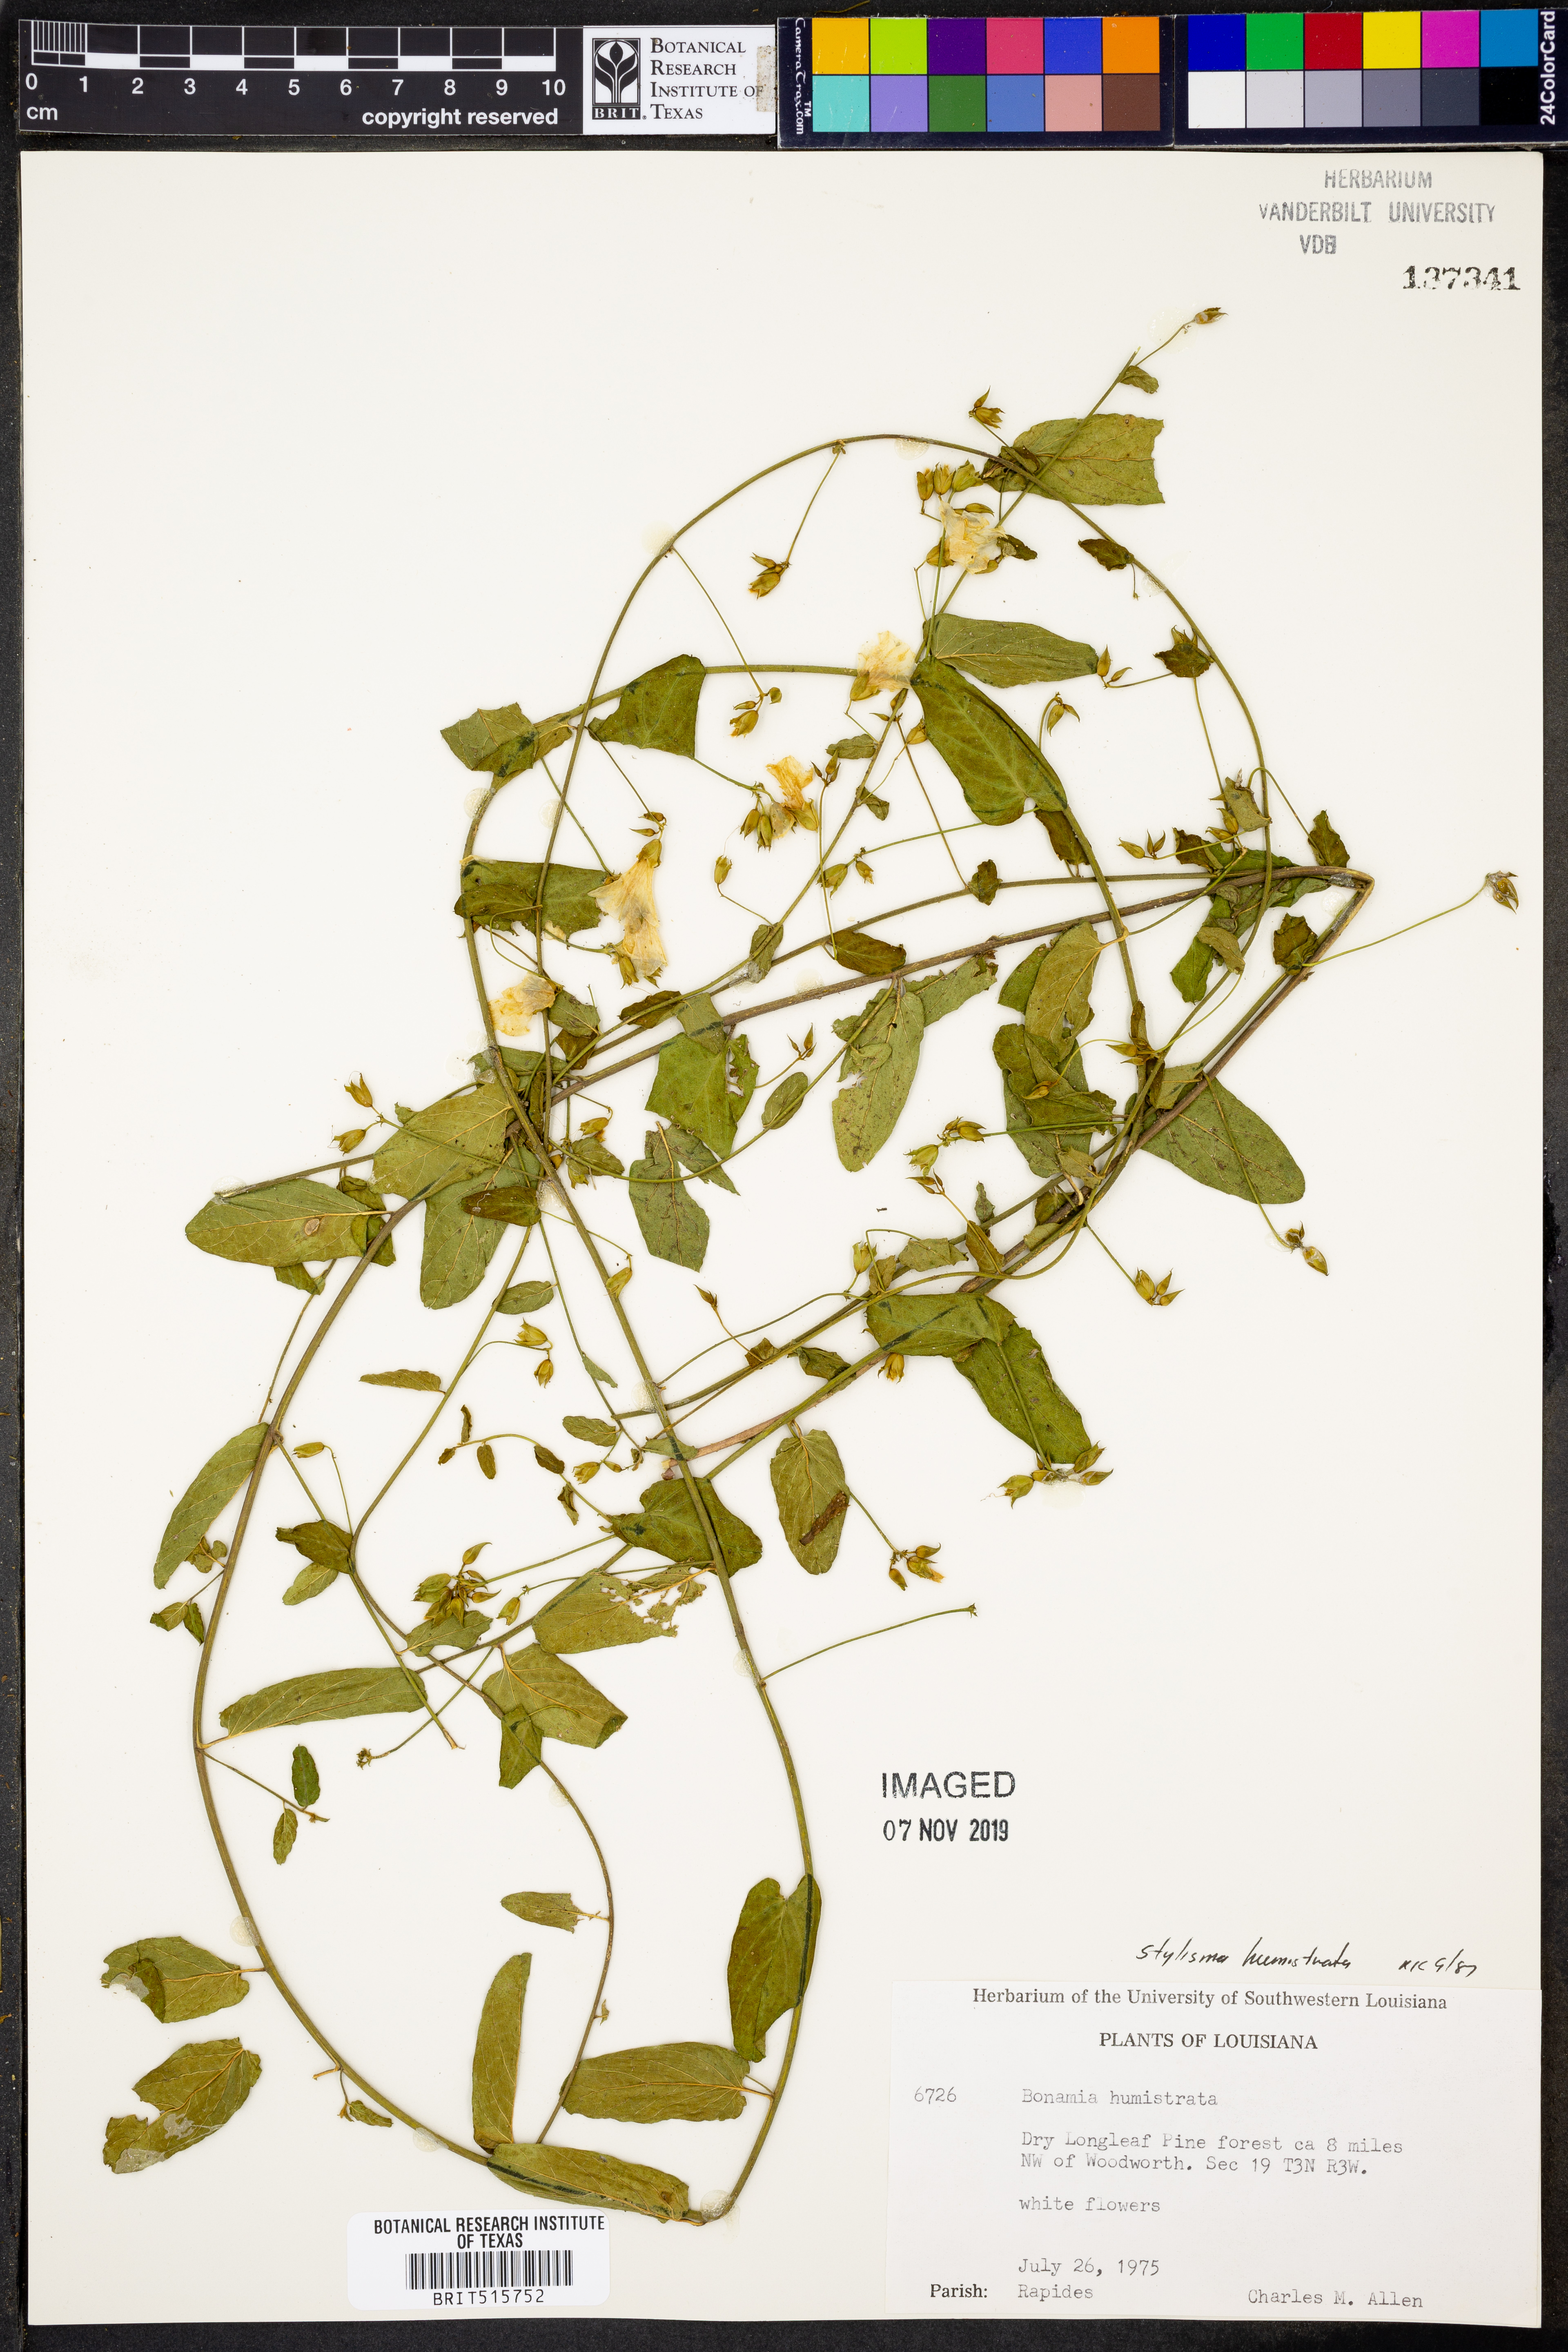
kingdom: Plantae
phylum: Tracheophyta
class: Magnoliopsida
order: Solanales
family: Convolvulaceae
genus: Stylisma
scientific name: Stylisma humistrata
